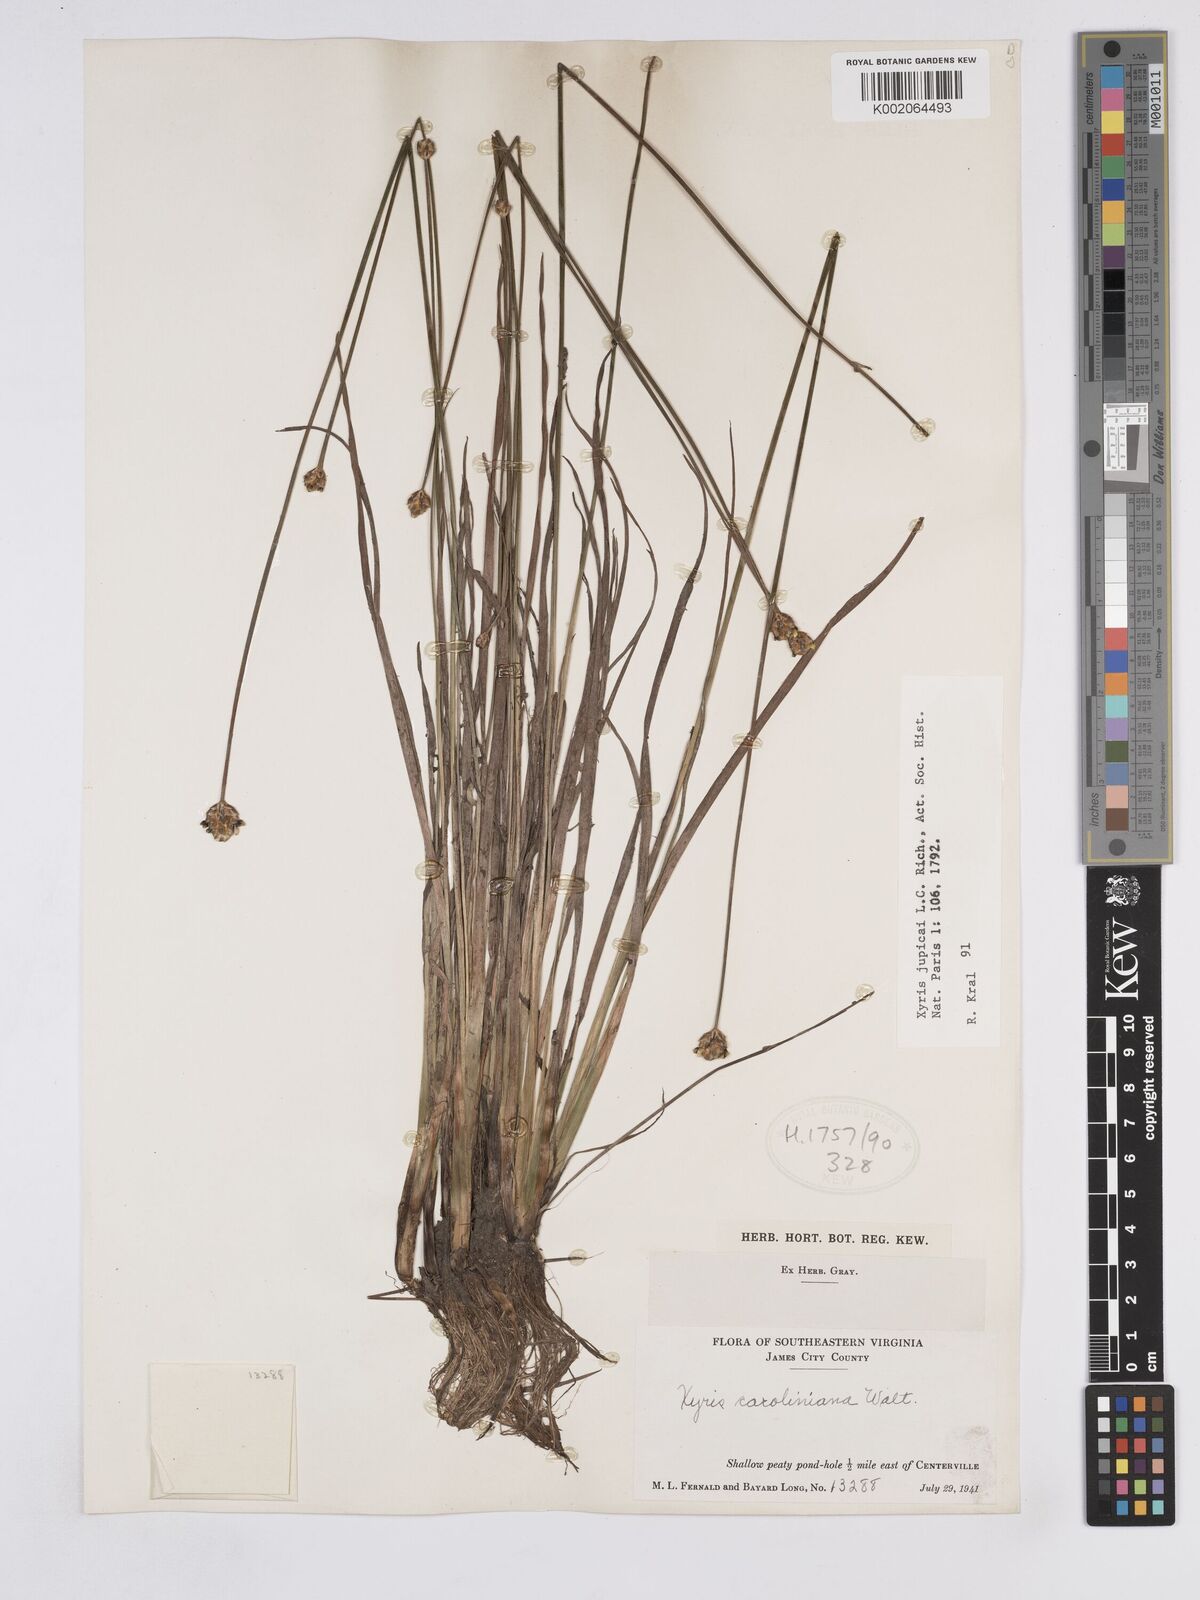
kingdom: Plantae
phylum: Tracheophyta
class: Liliopsida
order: Poales
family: Xyridaceae
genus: Xyris
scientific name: Xyris jupicai
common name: Richard's yelloweyed grass
